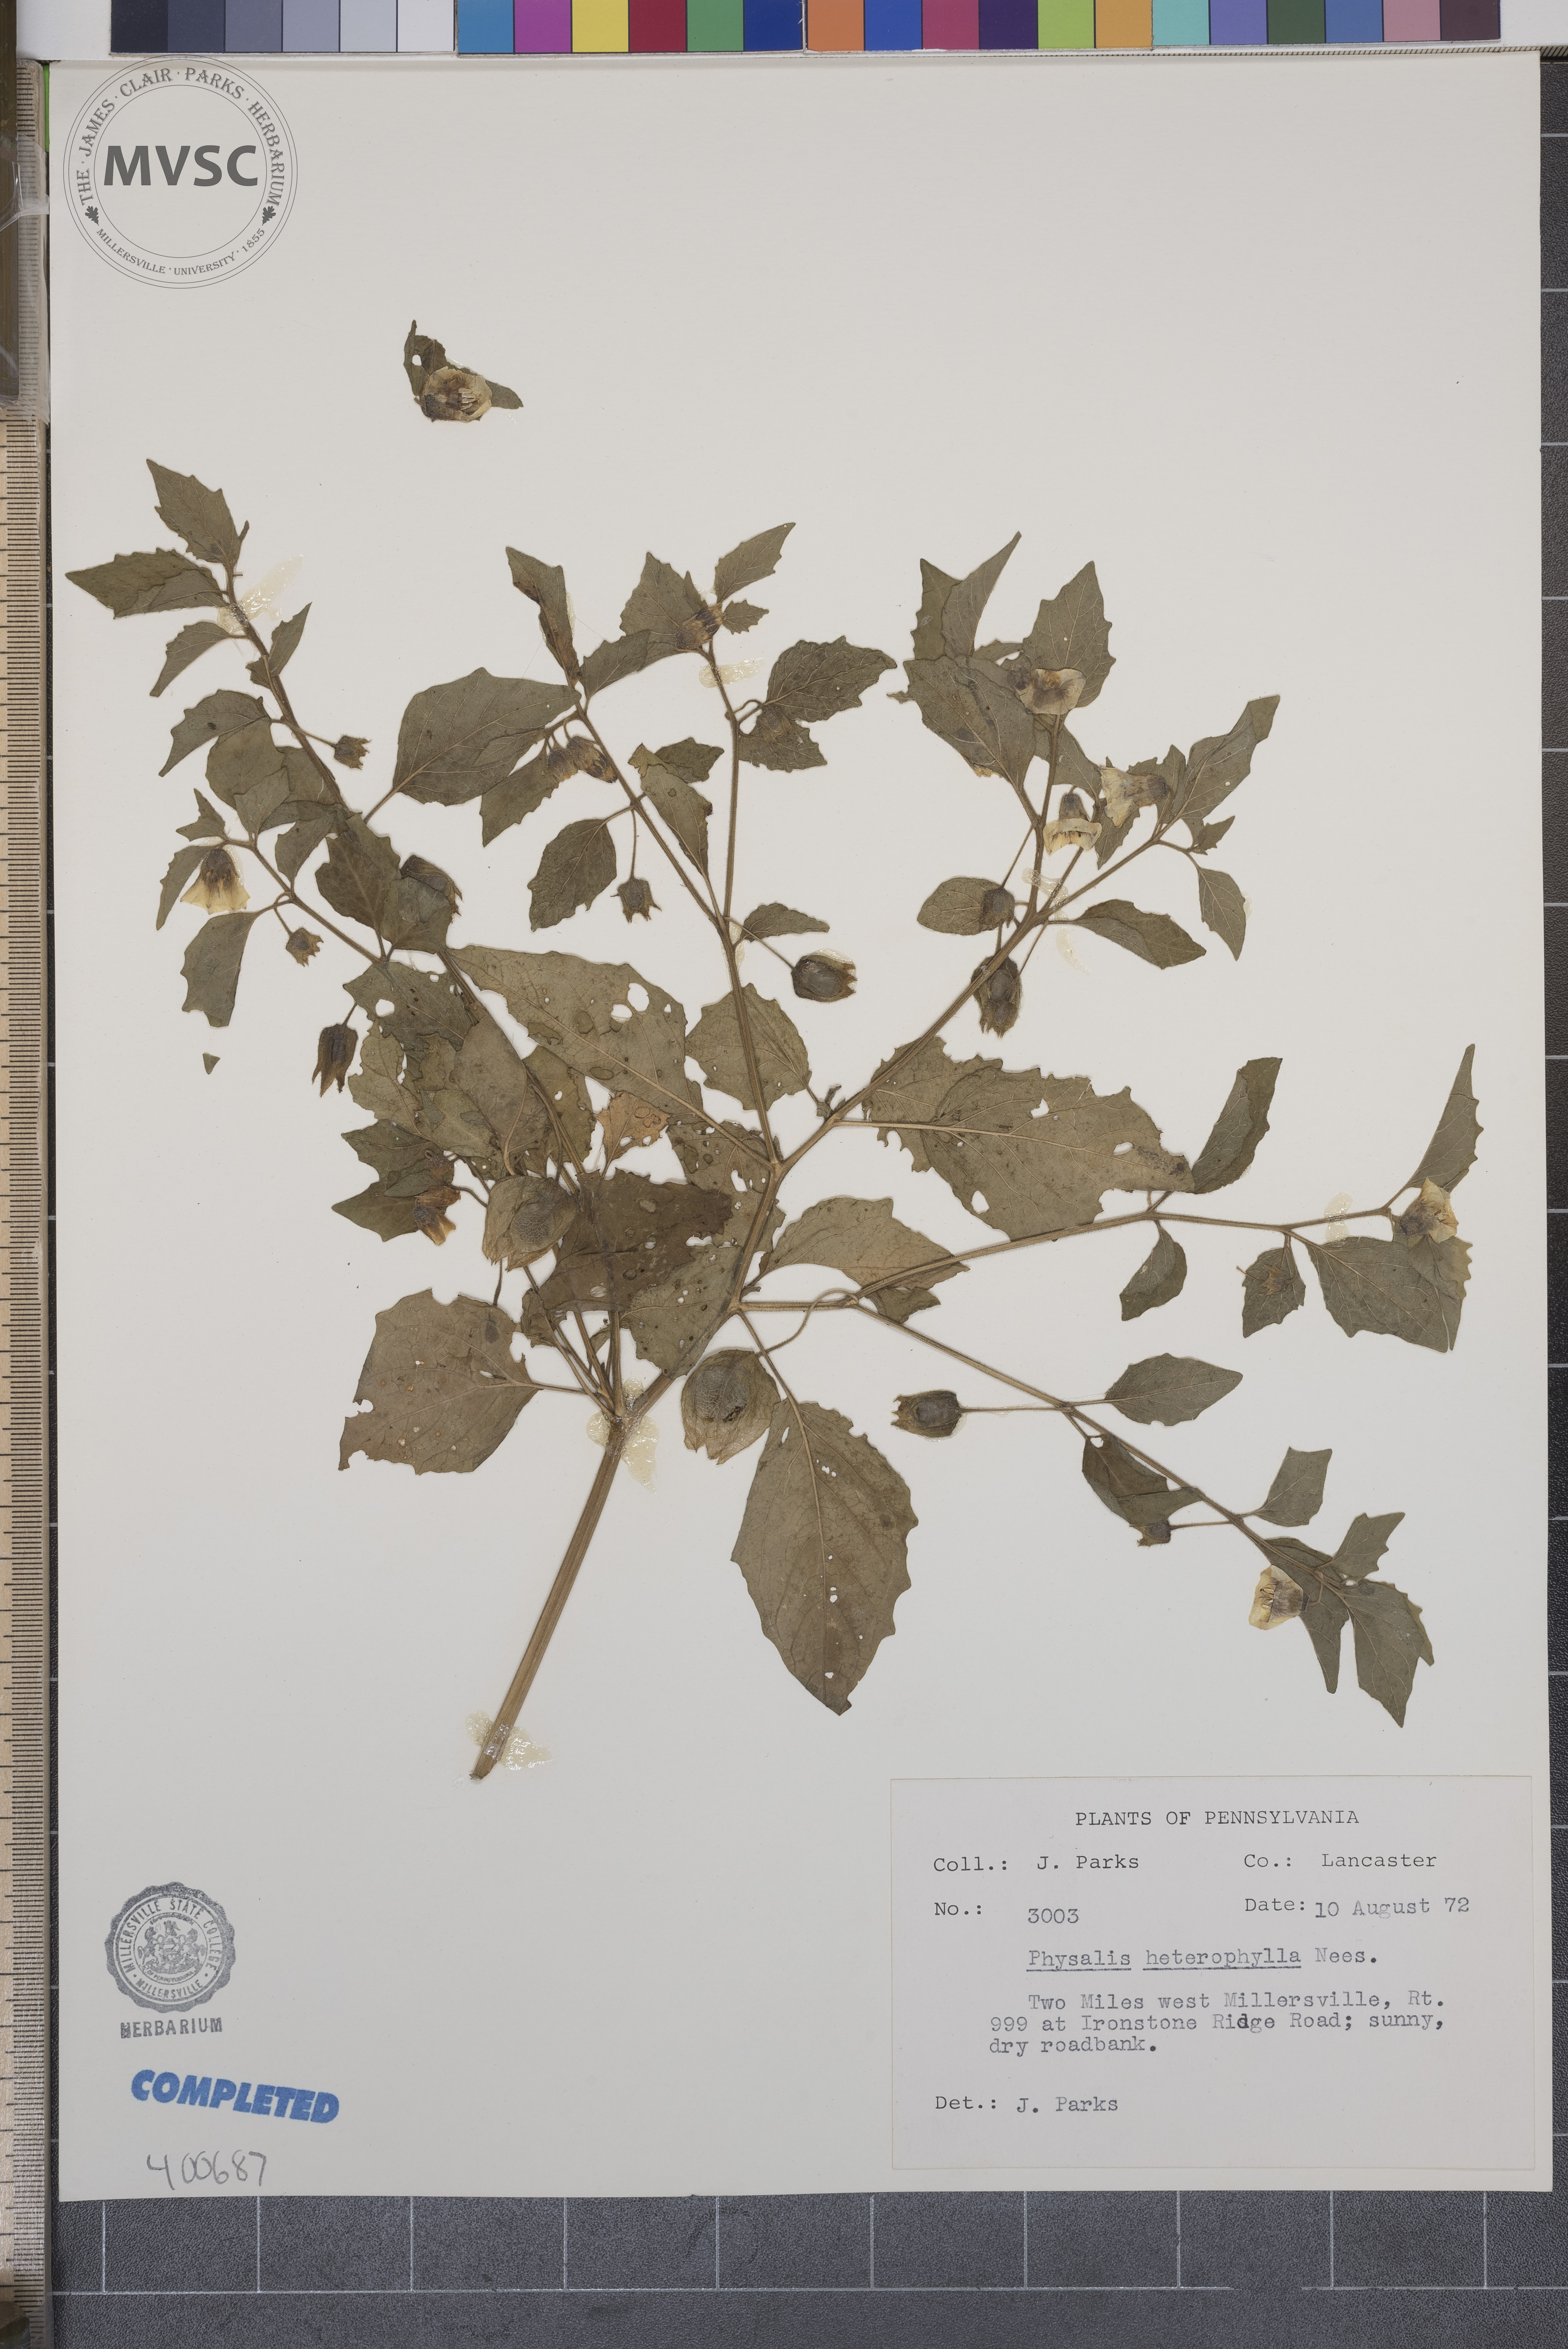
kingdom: Plantae
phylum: Tracheophyta
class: Magnoliopsida
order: Solanales
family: Solanaceae
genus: Physalis
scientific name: Physalis heterophylla
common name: ground-cherry
